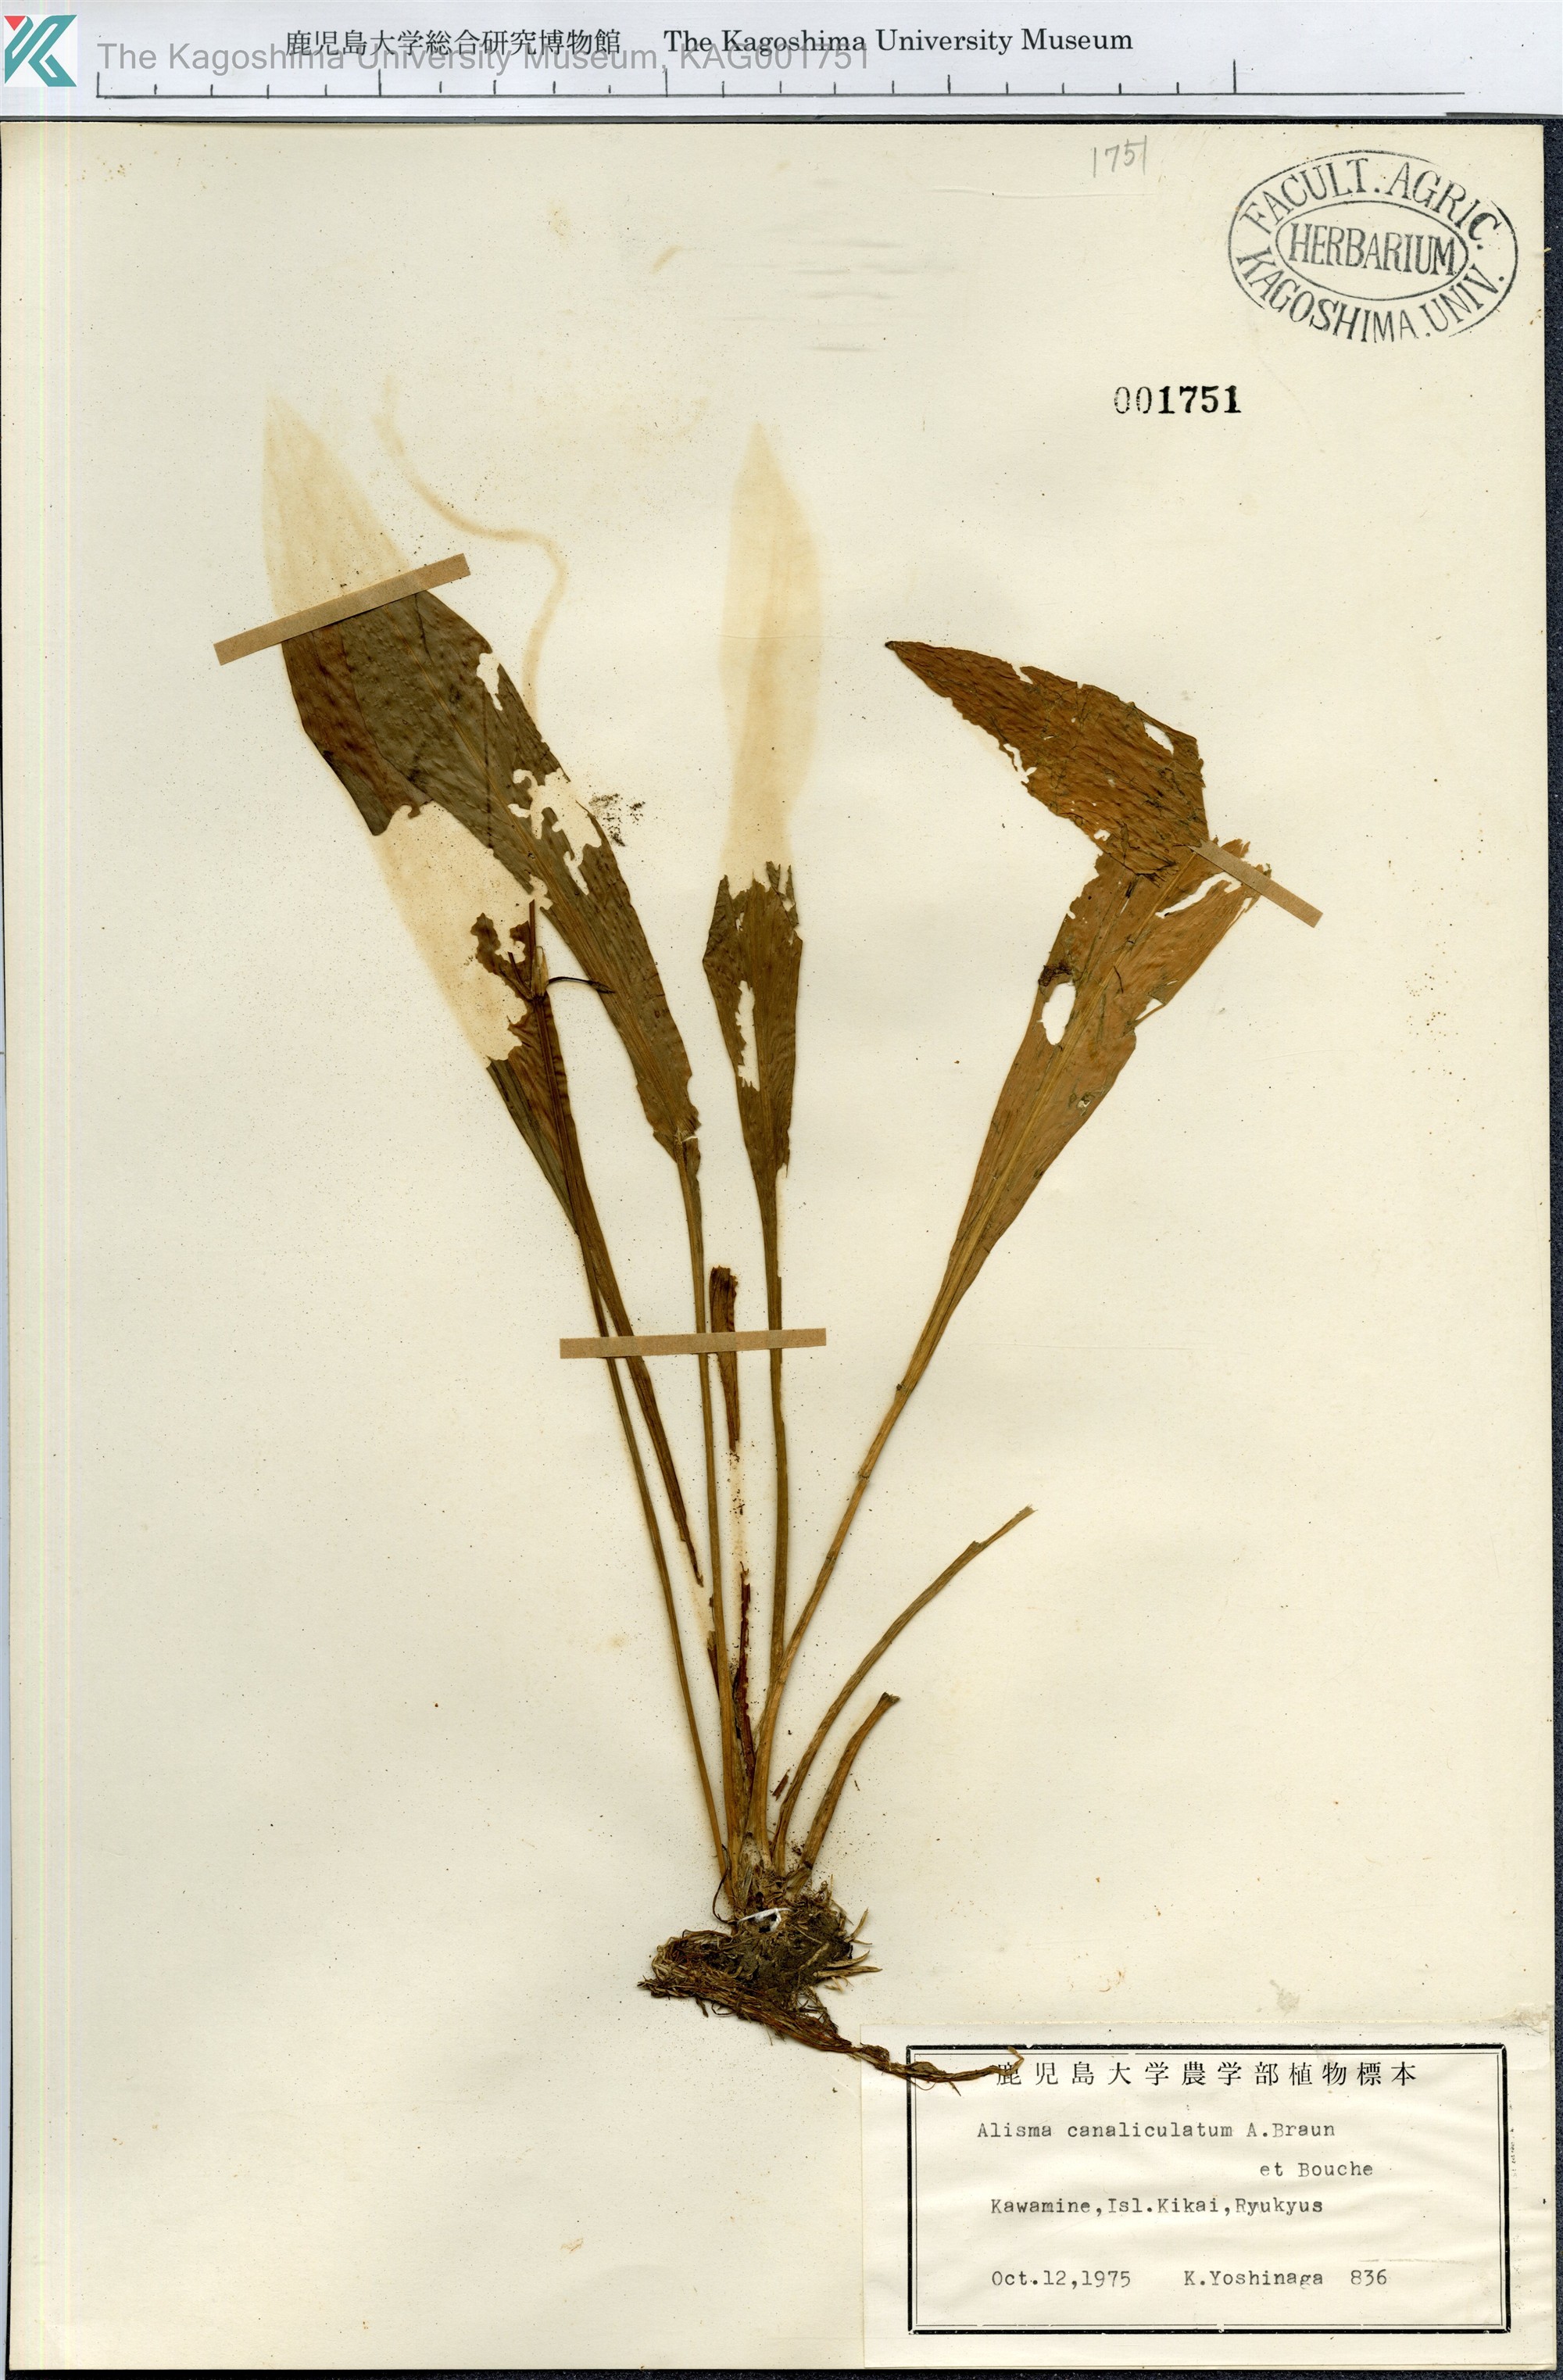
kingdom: Plantae
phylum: Tracheophyta
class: Liliopsida
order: Alismatales
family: Alismataceae
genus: Alisma
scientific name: Alisma canaliculatum
